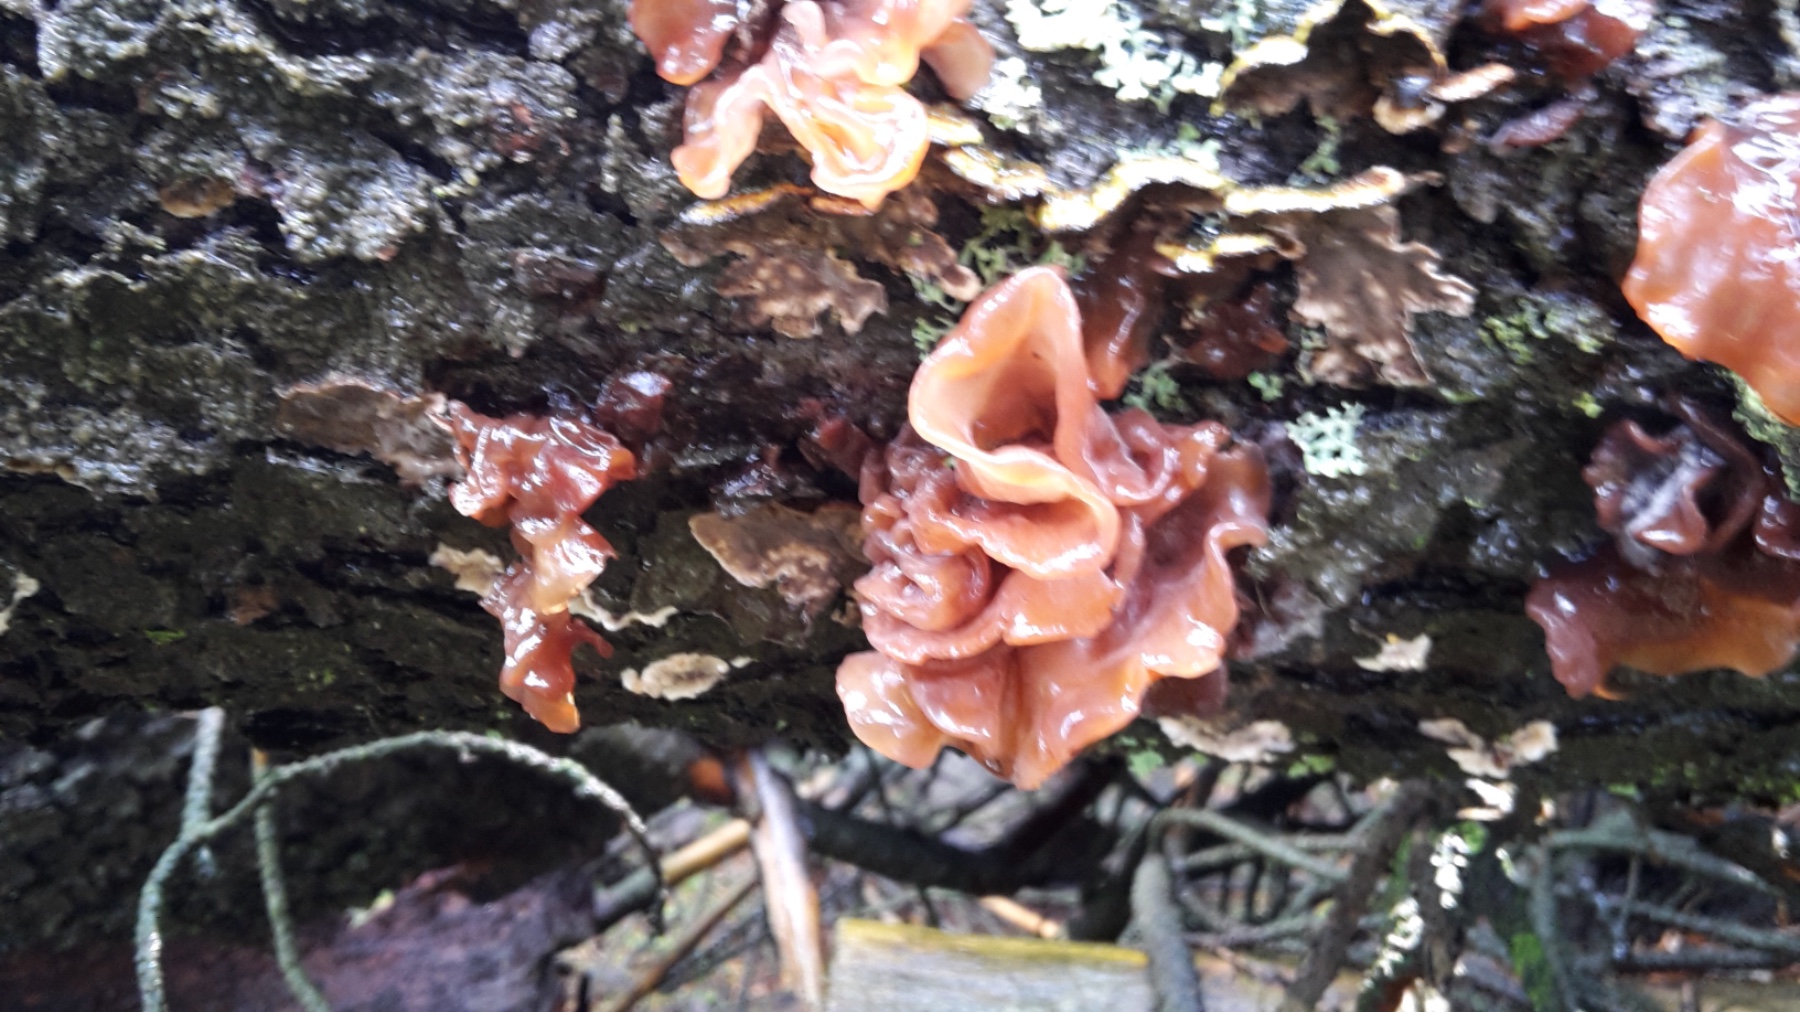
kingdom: Fungi
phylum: Basidiomycota
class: Tremellomycetes
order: Tremellales
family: Tremellaceae
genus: Phaeotremella
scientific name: Phaeotremella foliacea
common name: brun bævresvamp
